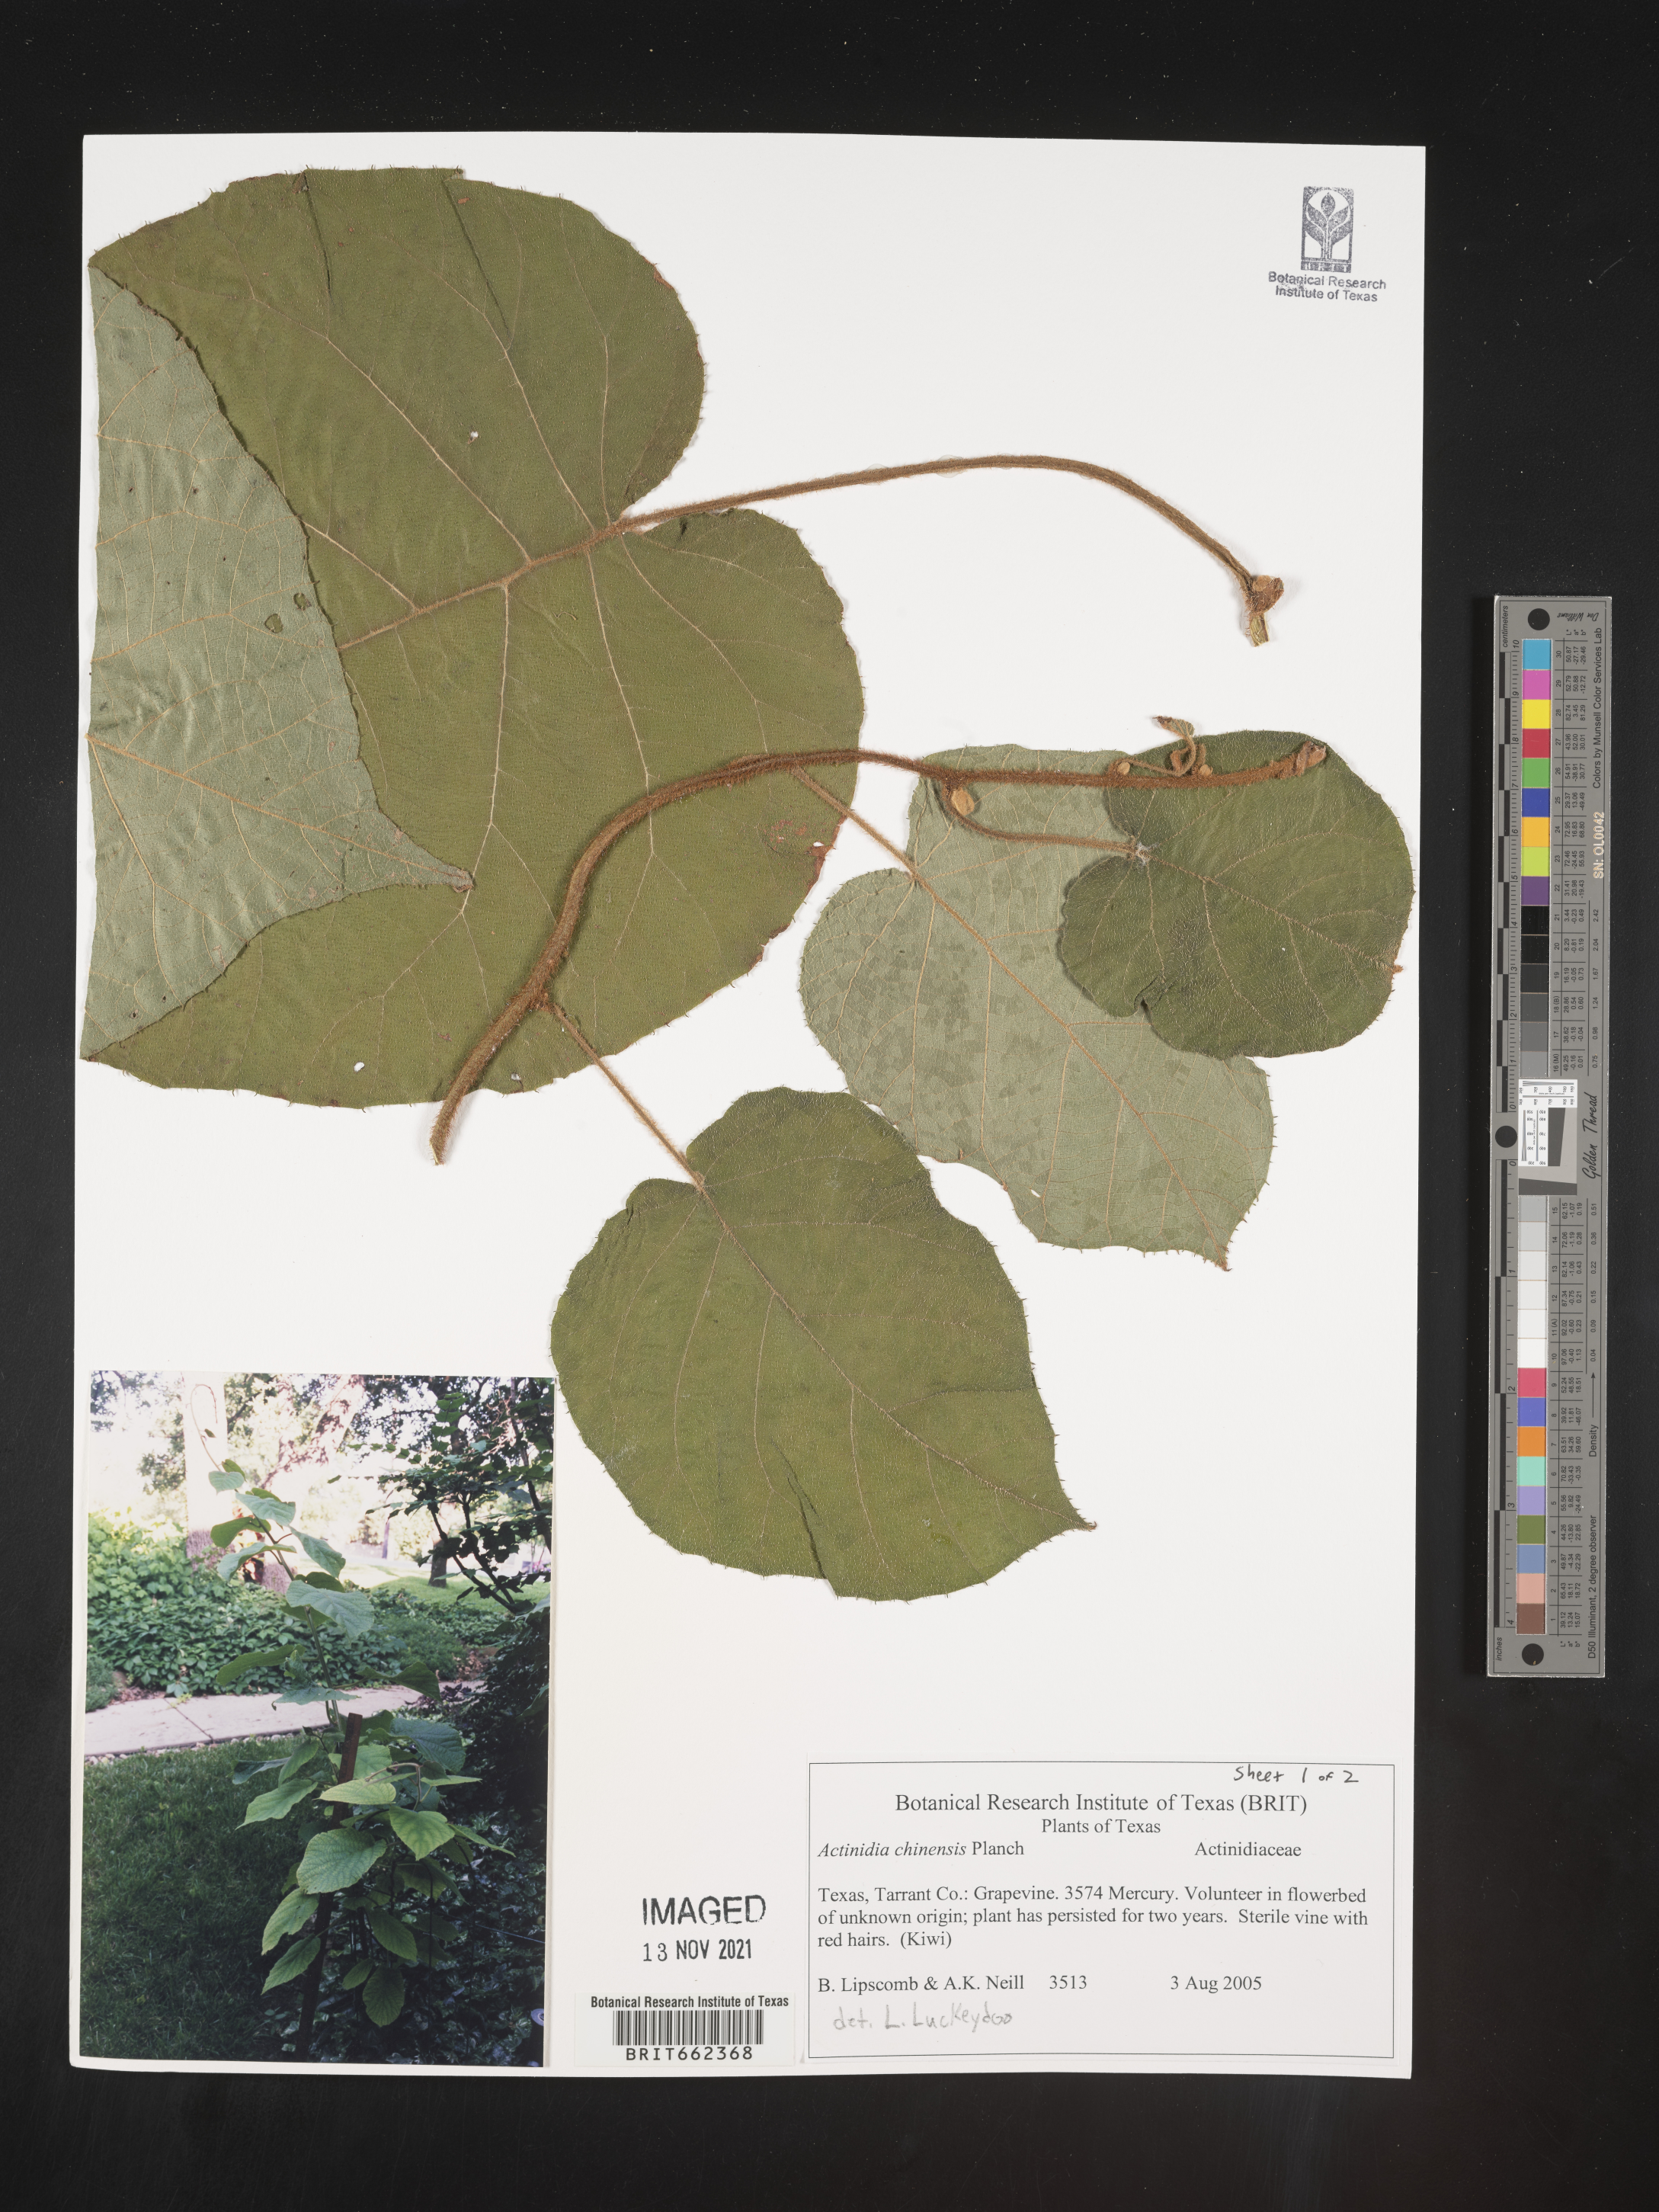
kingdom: Plantae
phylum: Tracheophyta
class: Magnoliopsida
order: Ericales
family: Actinidiaceae
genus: Actinidia
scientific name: Actinidia
